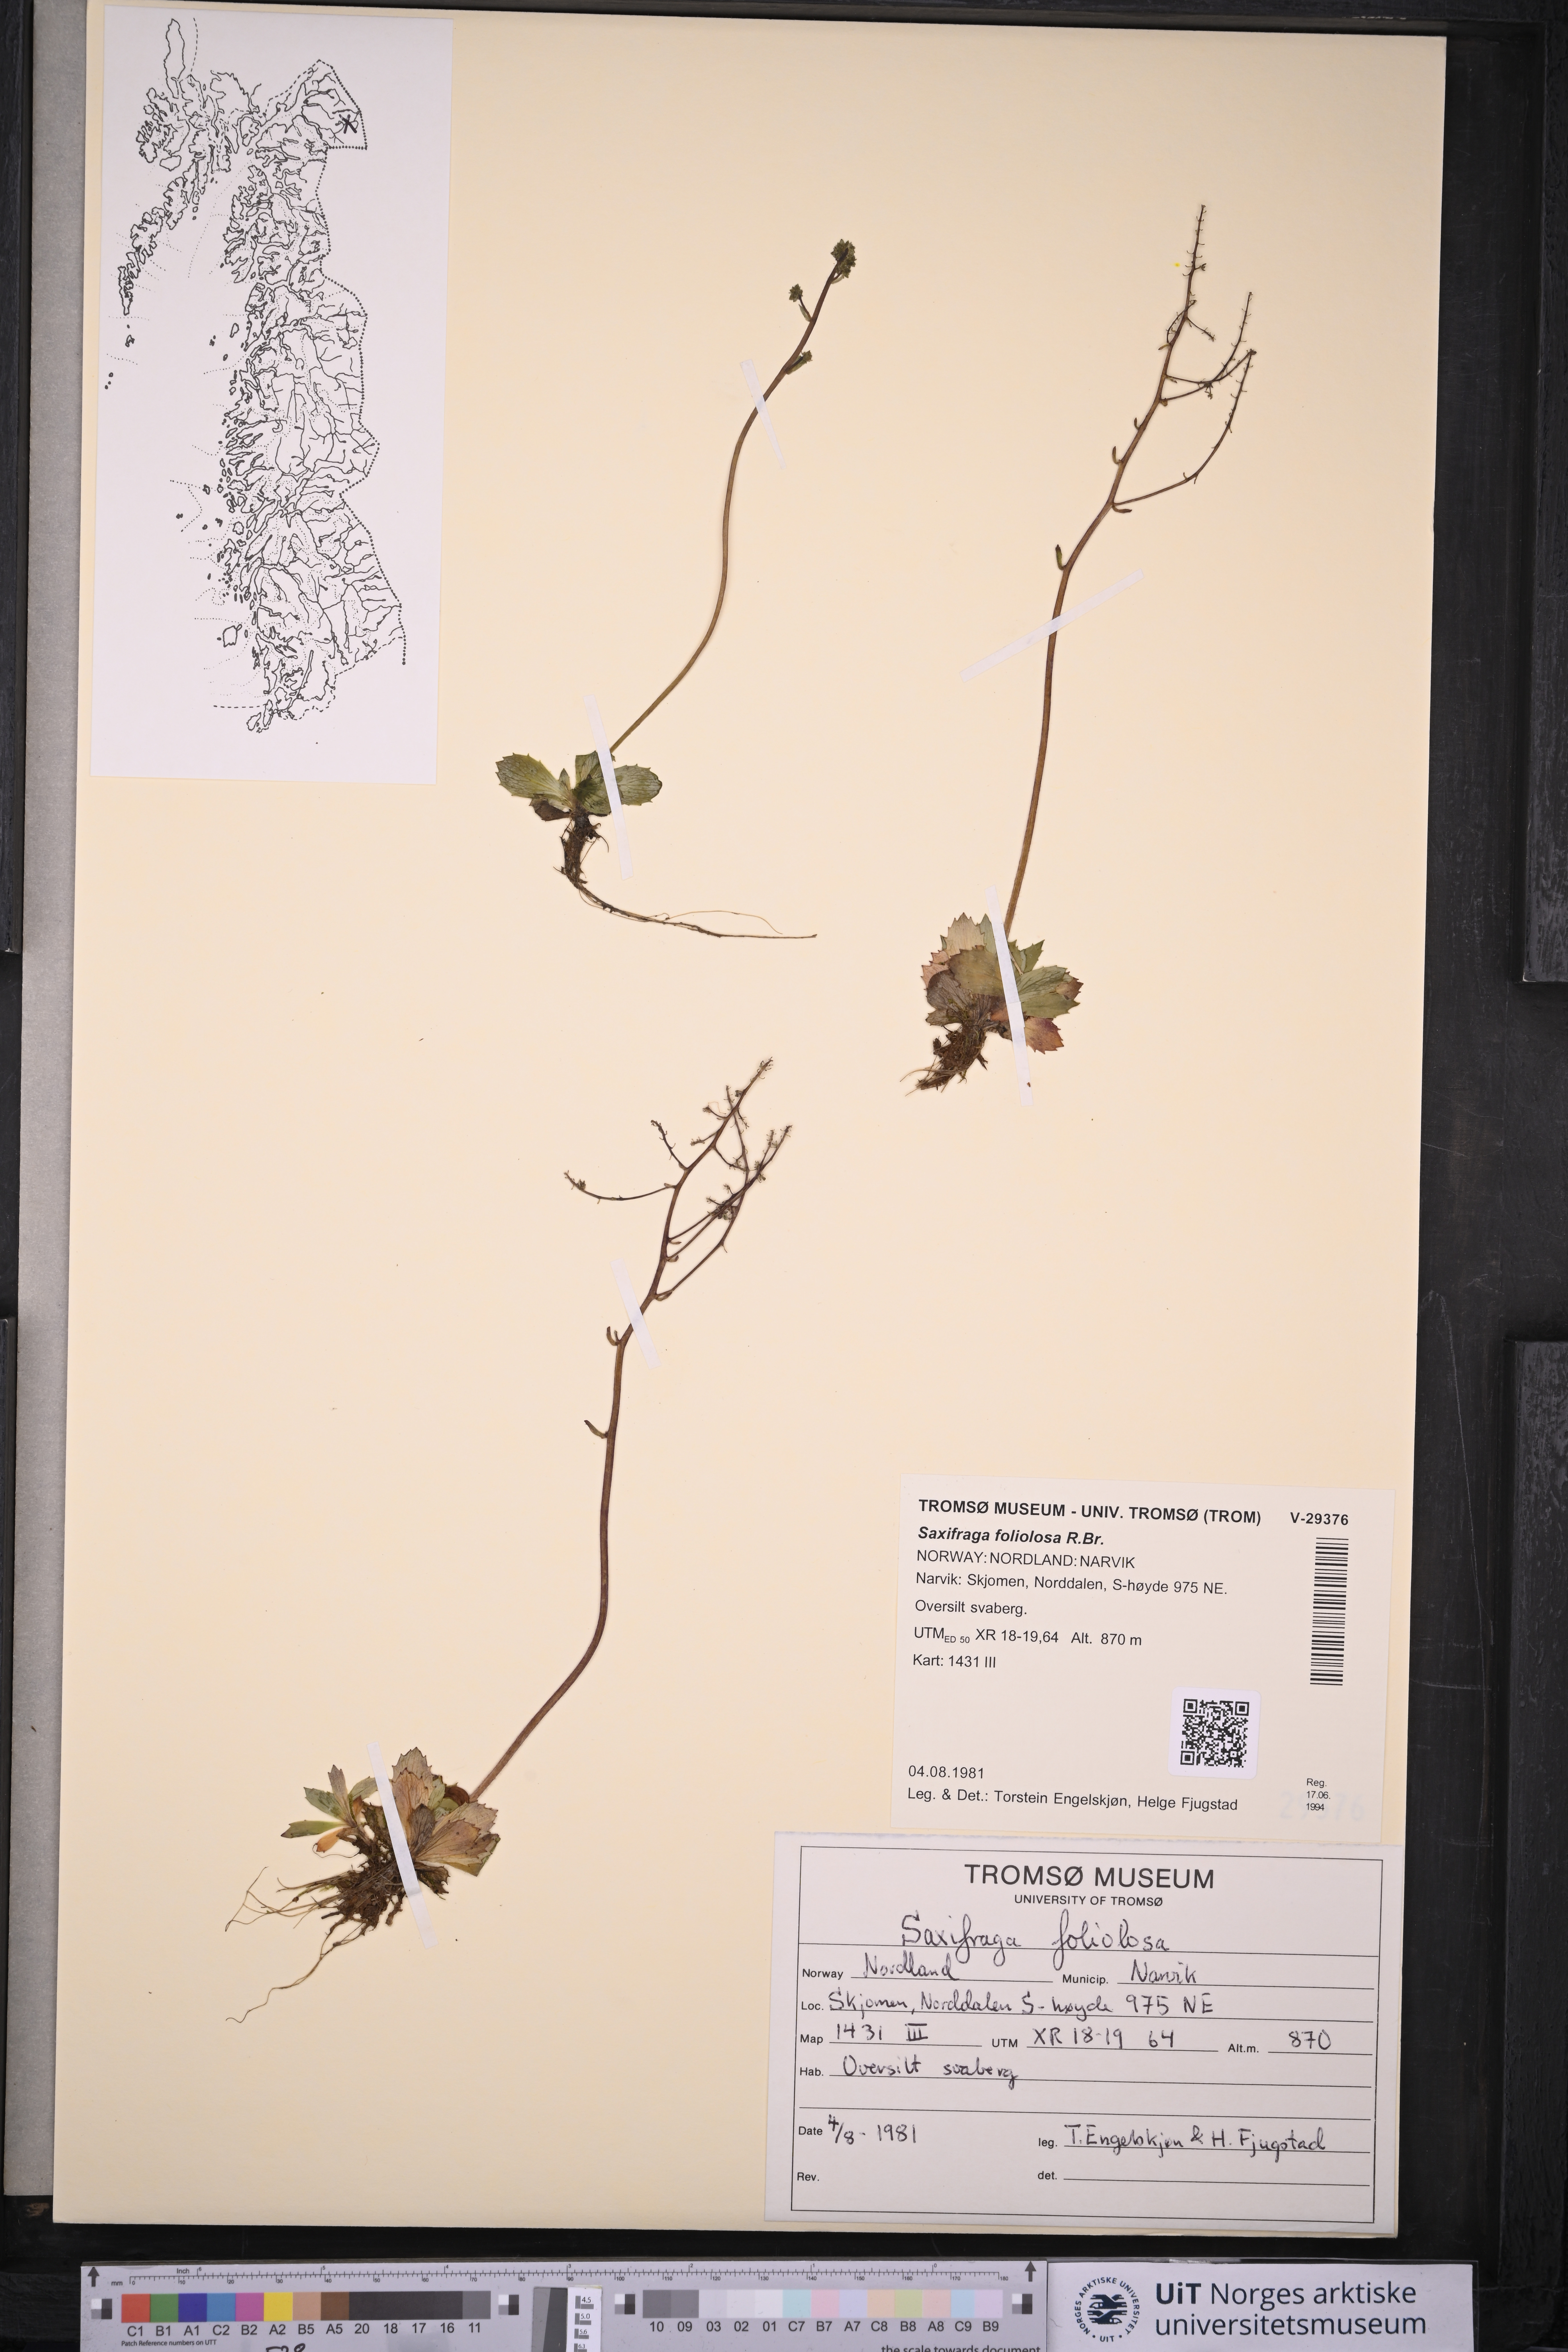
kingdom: Plantae
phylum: Tracheophyta
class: Magnoliopsida
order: Saxifragales
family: Saxifragaceae
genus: Micranthes
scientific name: Micranthes foliolosa
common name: Leafystem saxifrage
